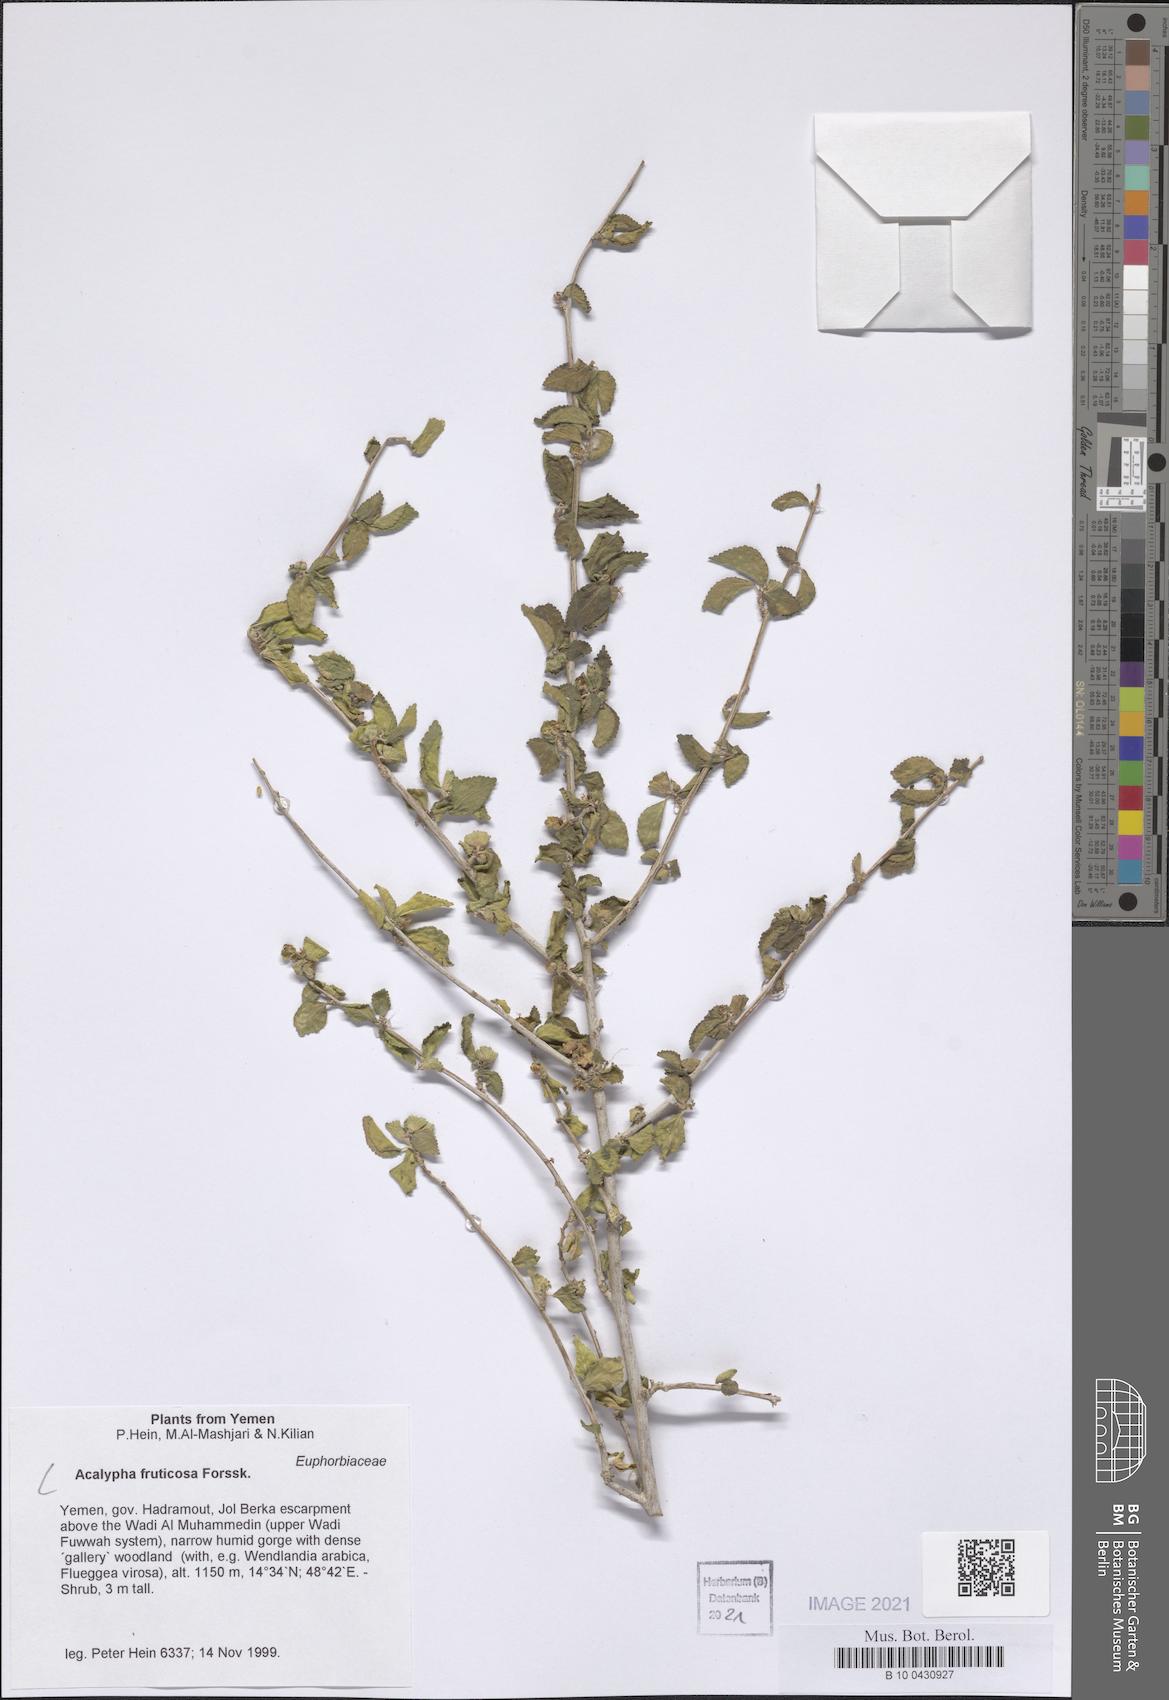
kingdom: Plantae
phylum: Tracheophyta
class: Magnoliopsida
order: Malpighiales
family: Euphorbiaceae
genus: Acalypha
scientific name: Acalypha fruticosa
